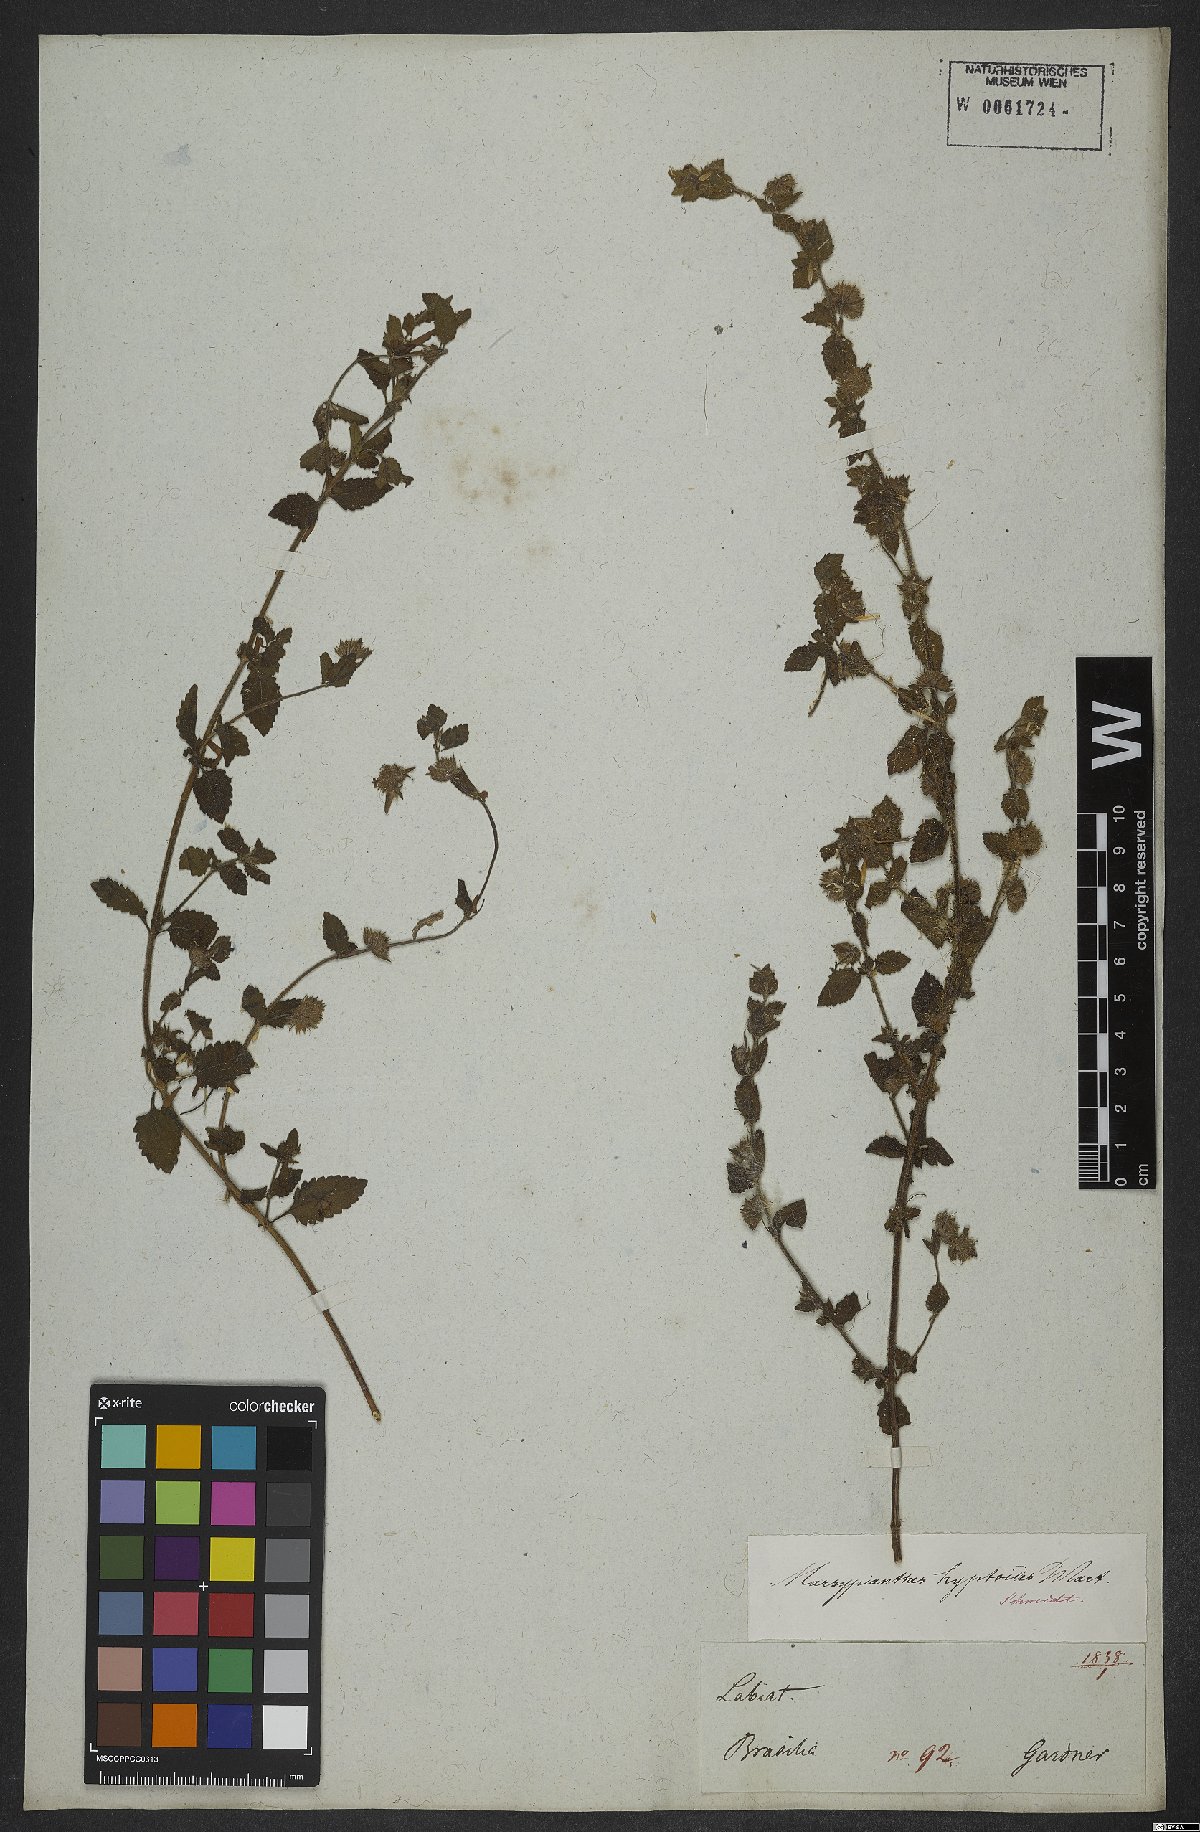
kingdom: Plantae
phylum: Tracheophyta
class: Magnoliopsida
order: Lamiales
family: Lamiaceae
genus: Marsypianthes
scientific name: Marsypianthes chamaedrys
